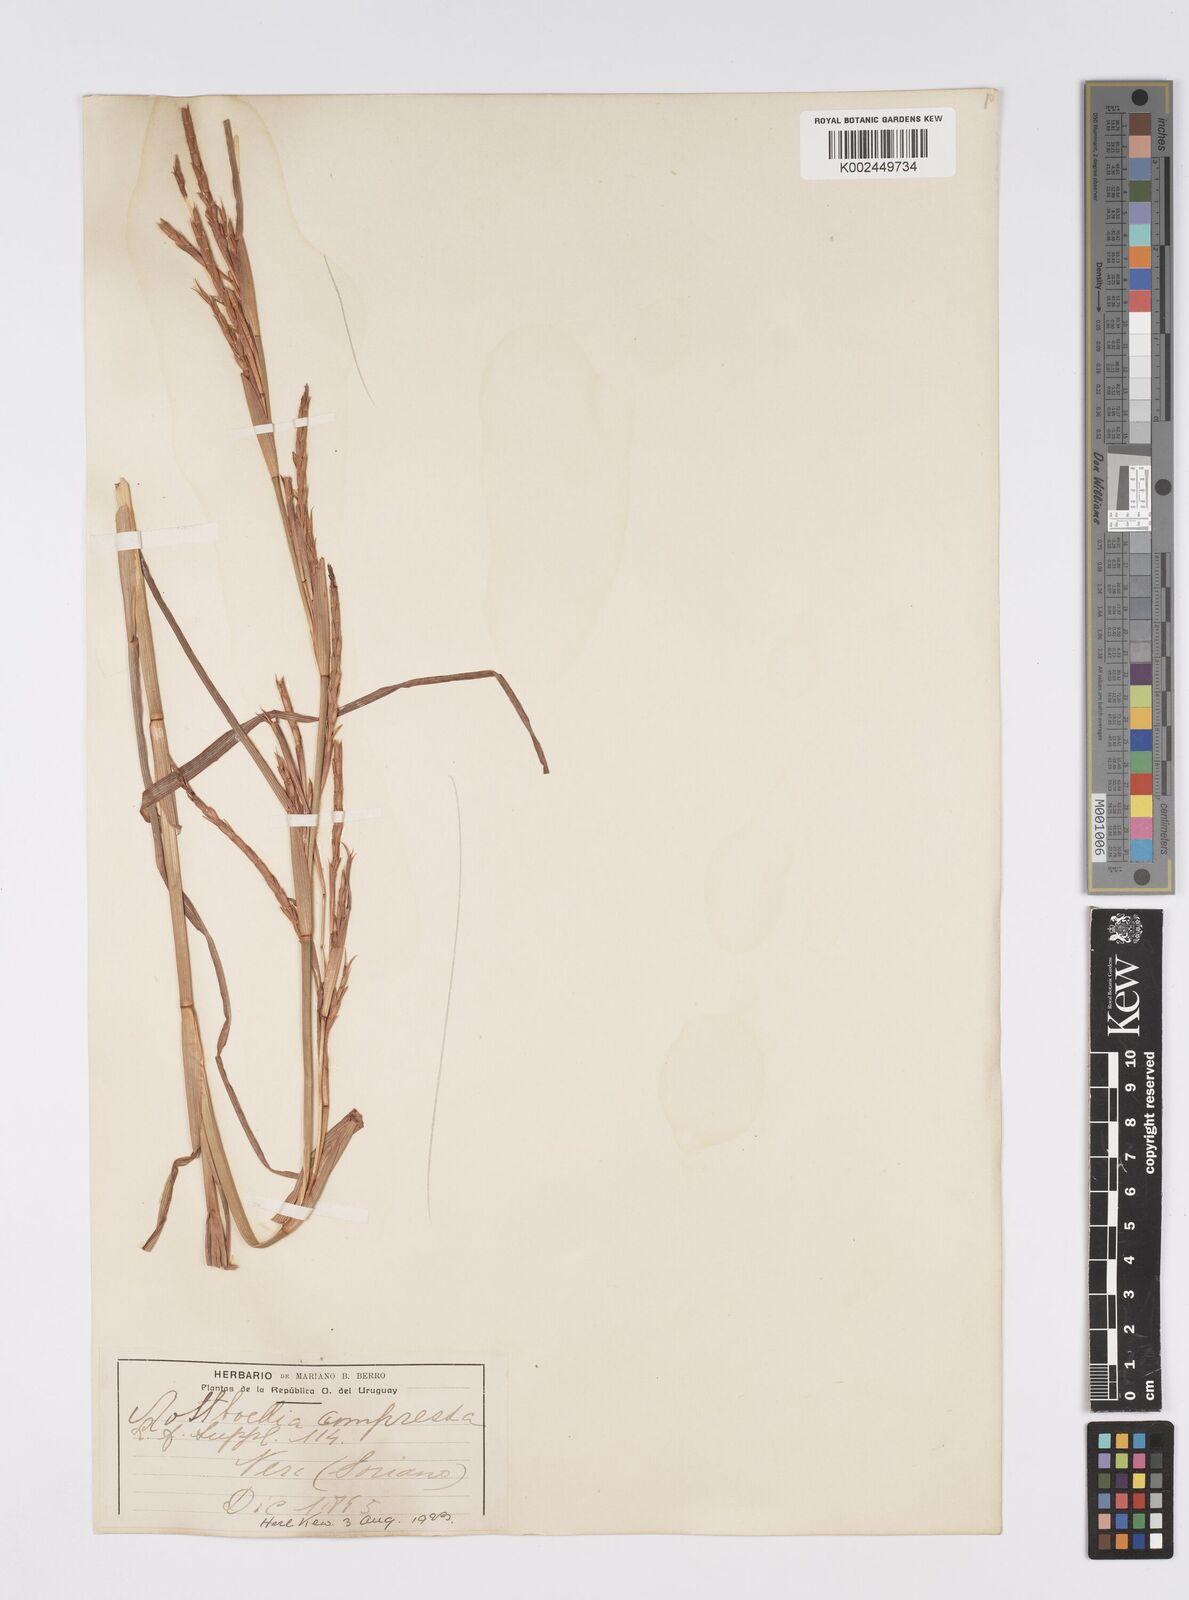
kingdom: Plantae
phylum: Tracheophyta
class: Liliopsida
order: Poales
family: Poaceae
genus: Hemarthria
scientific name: Hemarthria altissima
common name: African jointgrass
